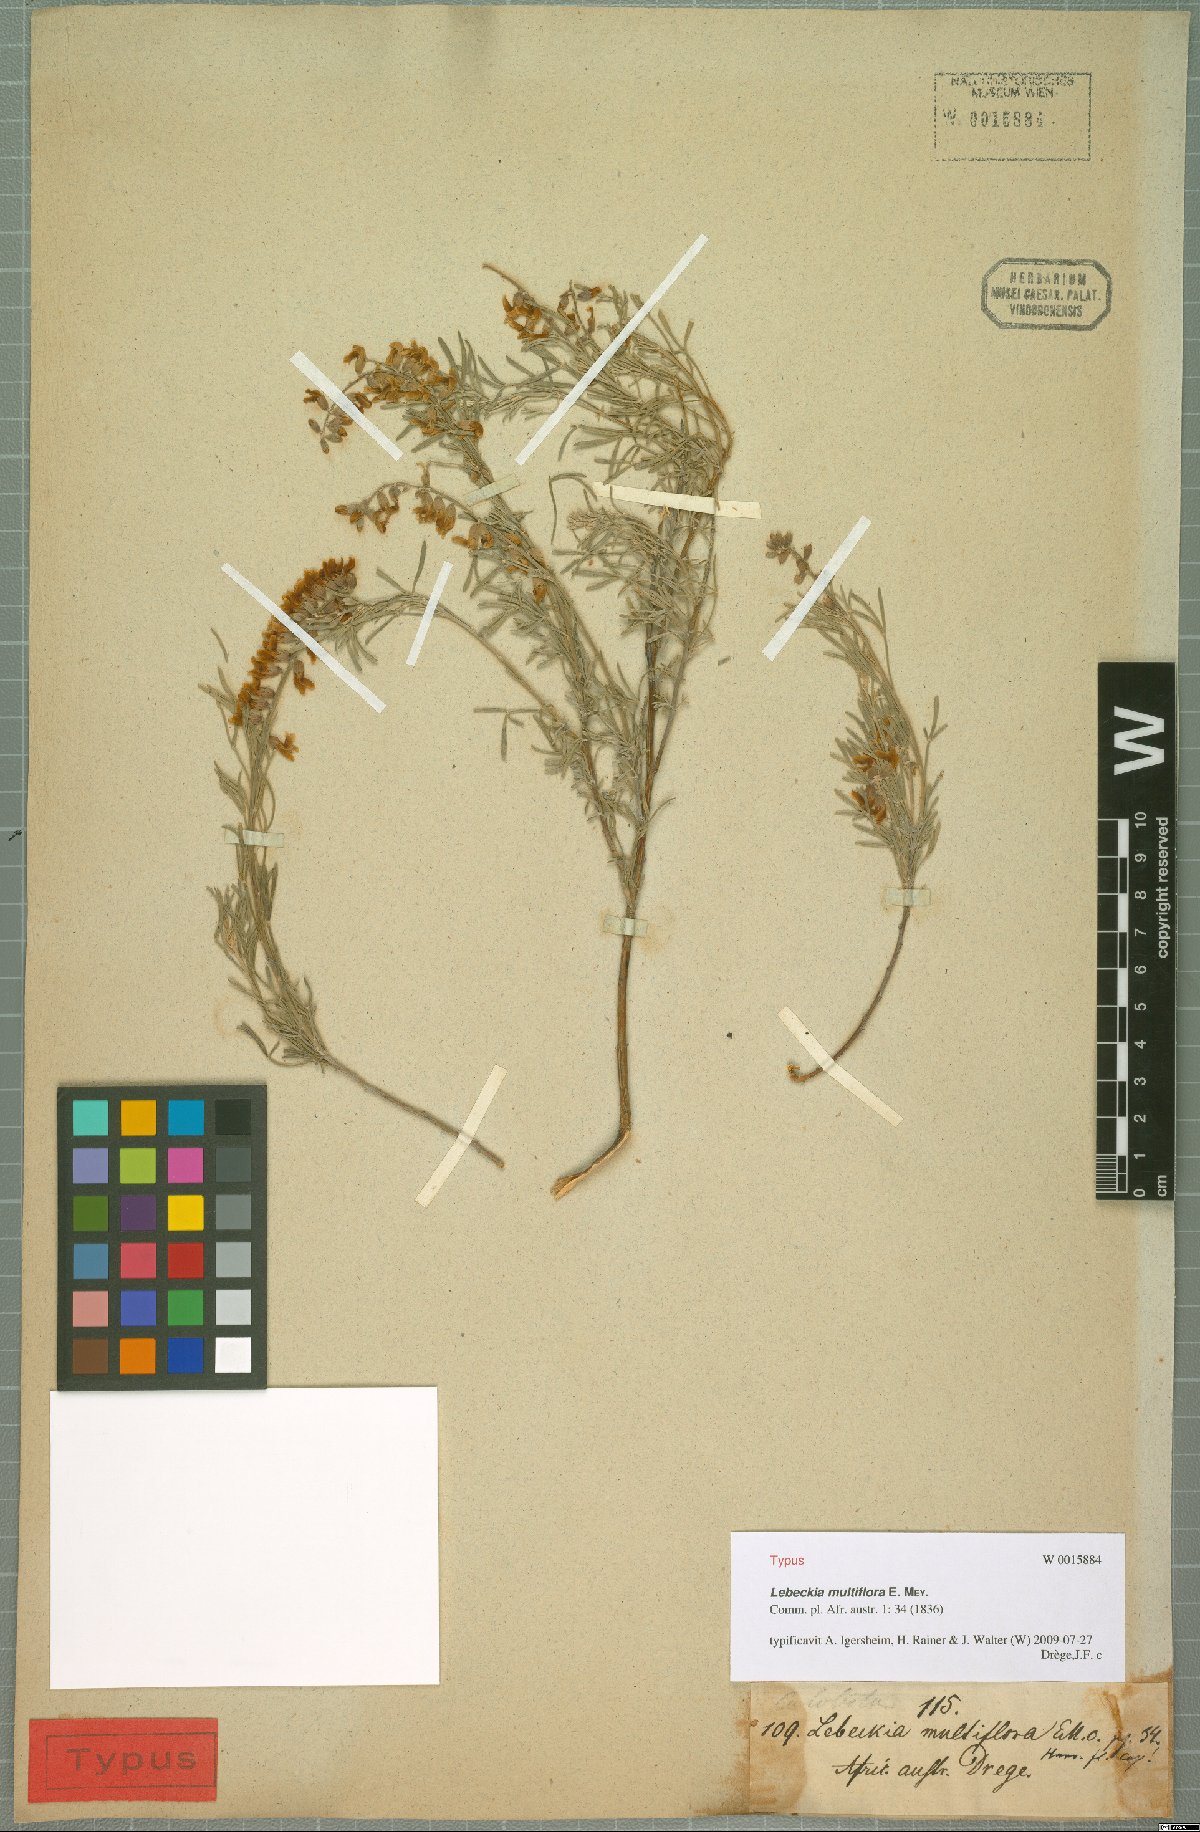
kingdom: Plantae
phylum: Tracheophyta
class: Magnoliopsida
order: Fabales
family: Fabaceae
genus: Calobota
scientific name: Calobota angustifolia
